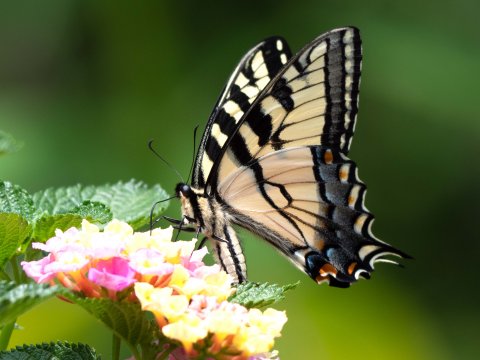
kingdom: Animalia
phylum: Arthropoda
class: Insecta
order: Lepidoptera
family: Papilionidae
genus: Pterourus
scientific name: Pterourus
